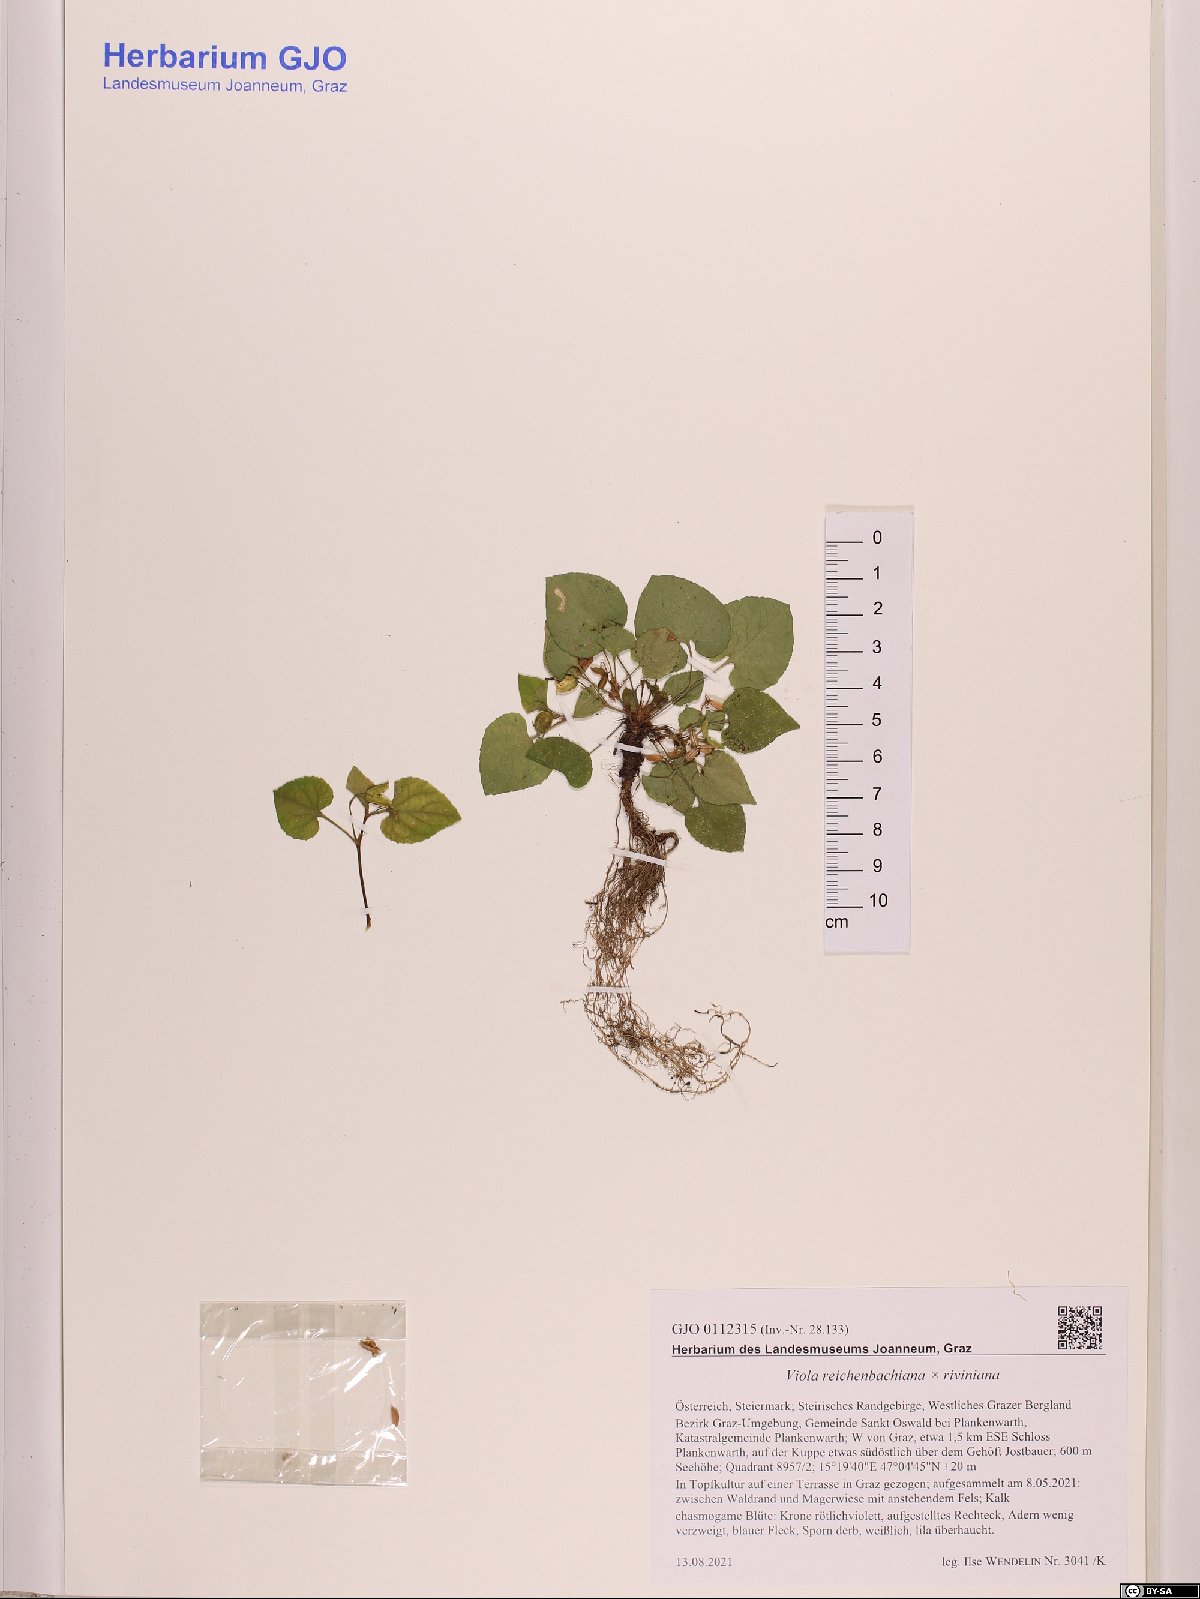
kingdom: Plantae
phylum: Tracheophyta
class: Magnoliopsida
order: Malpighiales
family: Violaceae
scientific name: Violaceae
